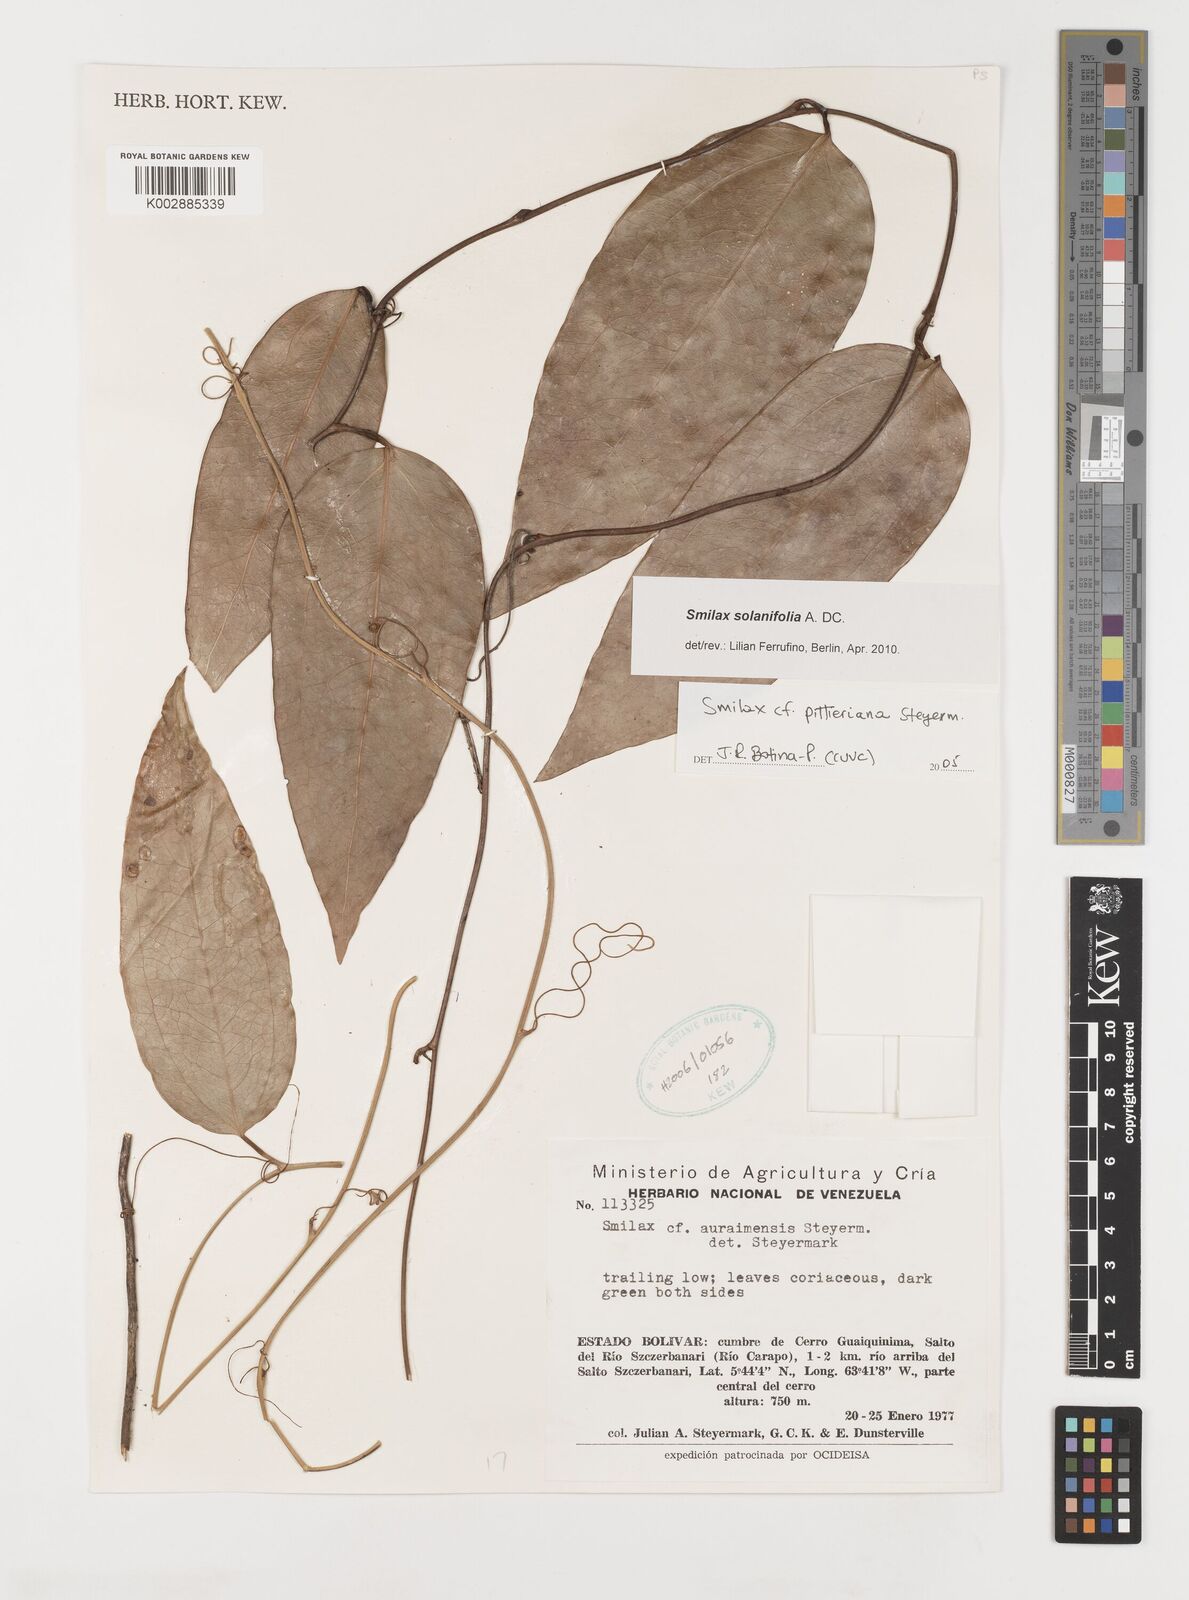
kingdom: Plantae
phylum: Tracheophyta
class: Liliopsida
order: Liliales
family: Smilacaceae
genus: Smilax
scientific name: Smilax solanifolia
